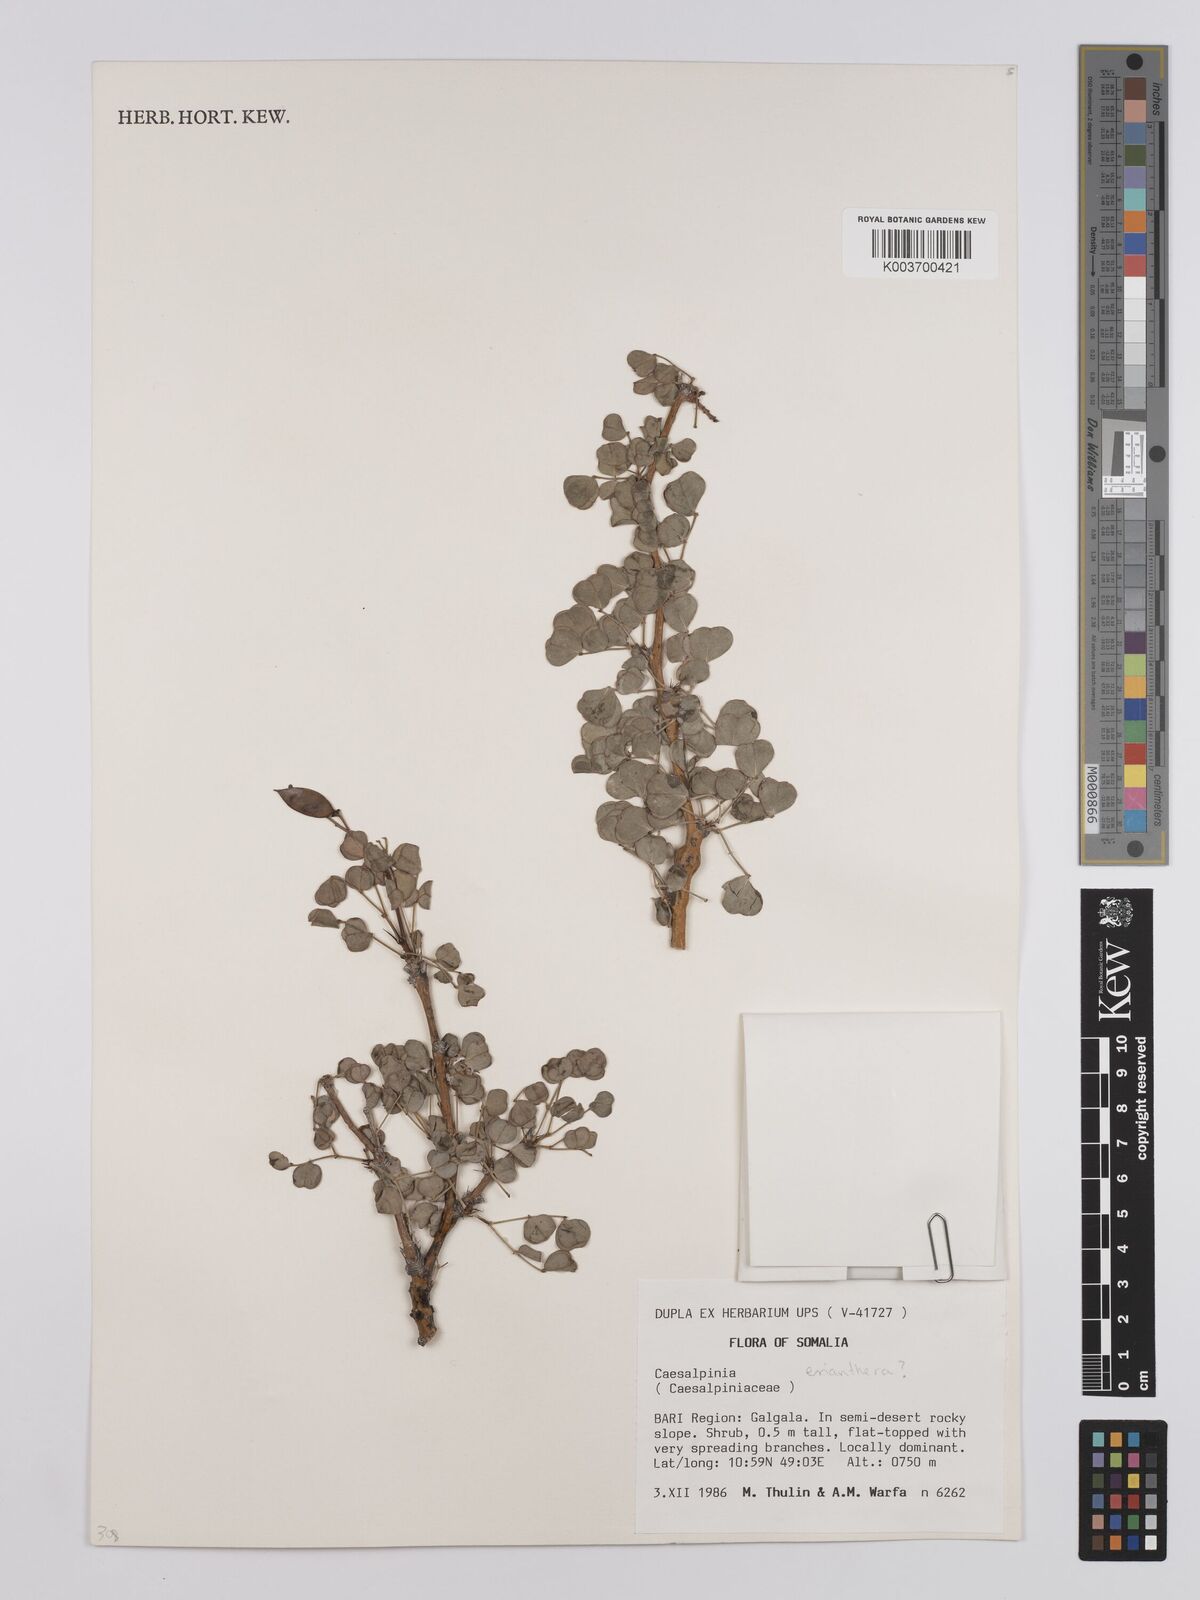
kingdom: Plantae
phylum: Tracheophyta
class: Magnoliopsida
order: Fabales
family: Fabaceae
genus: Denisophytum
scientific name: Denisophytum eriantherum
